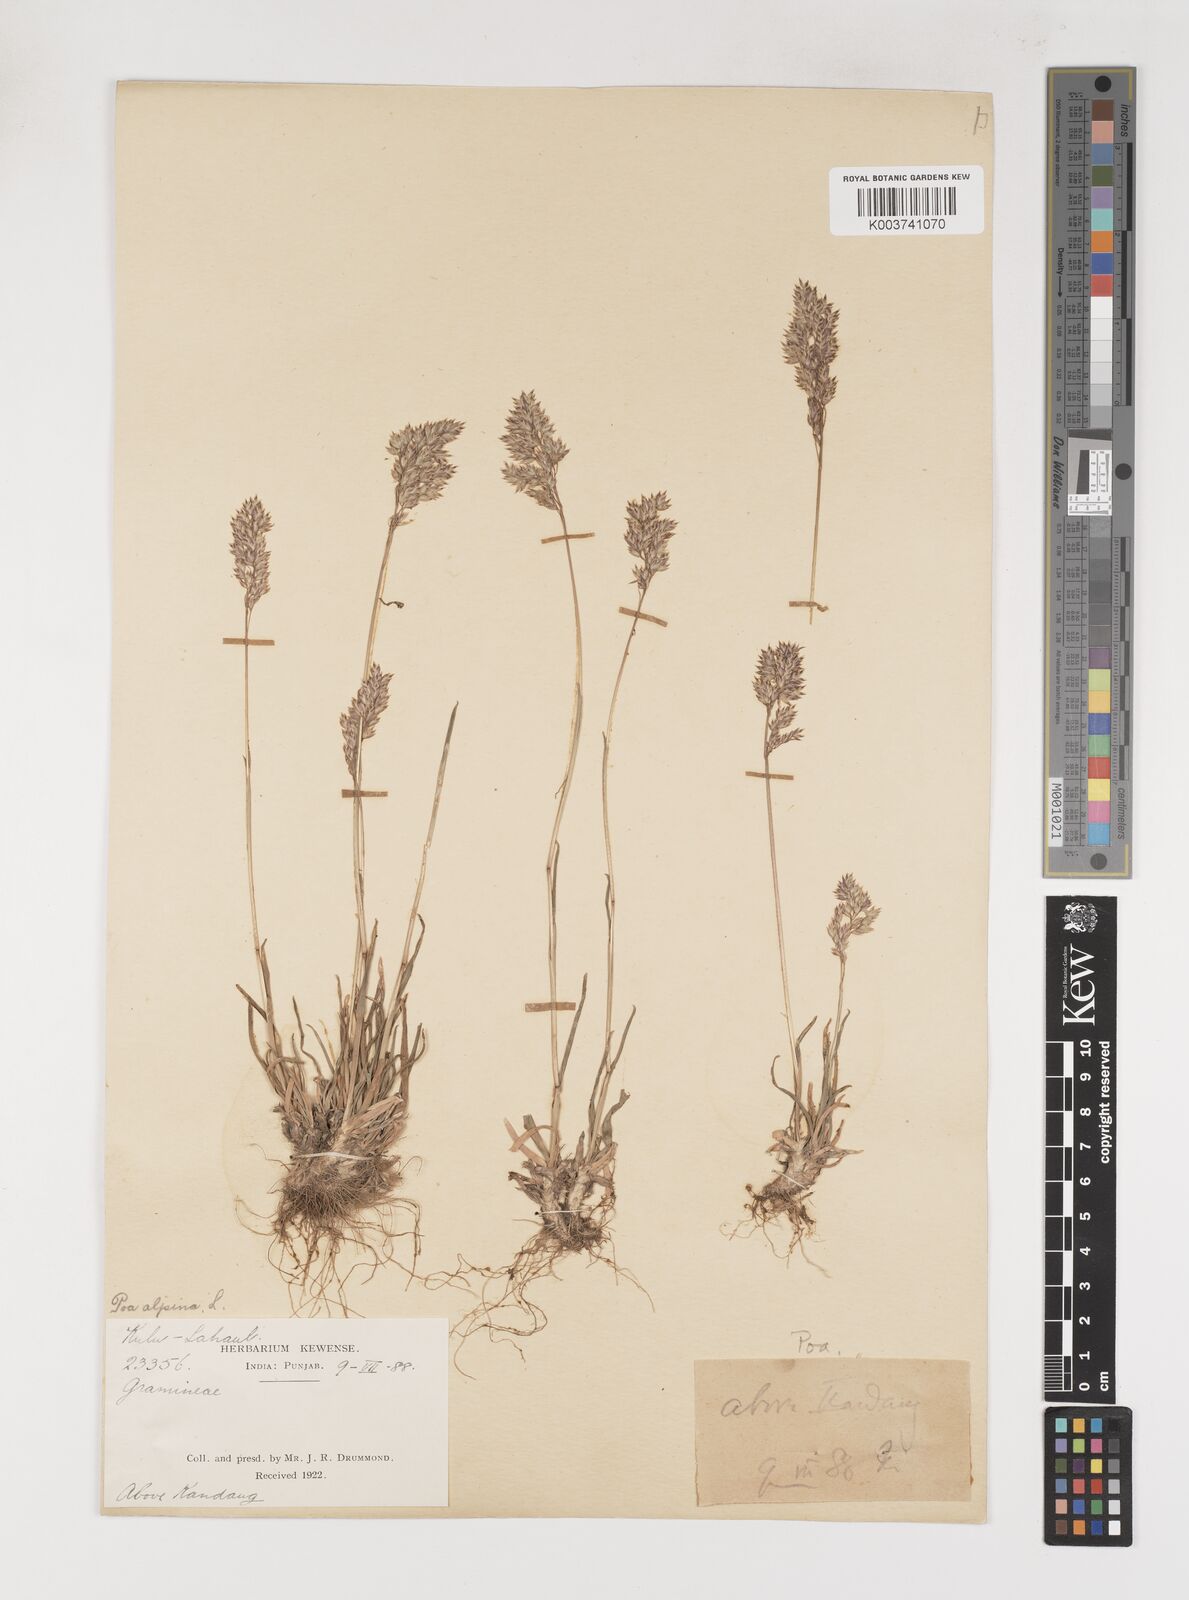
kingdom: Plantae
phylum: Tracheophyta
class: Liliopsida
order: Poales
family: Poaceae
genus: Poa
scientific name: Poa alpina
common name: Alpine bluegrass
